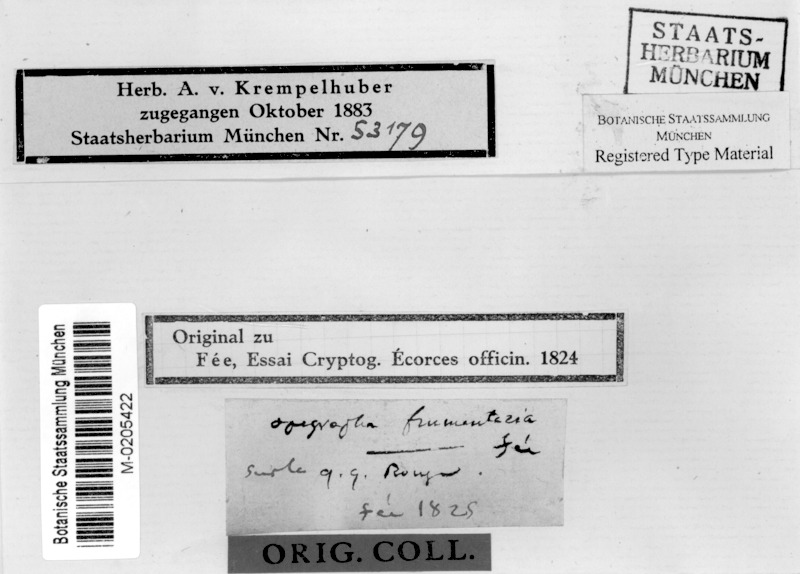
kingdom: Fungi
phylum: Ascomycota
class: Lecanoromycetes
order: Ostropales
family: Graphidaceae
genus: Allographa
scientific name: Allographa frumentaria
